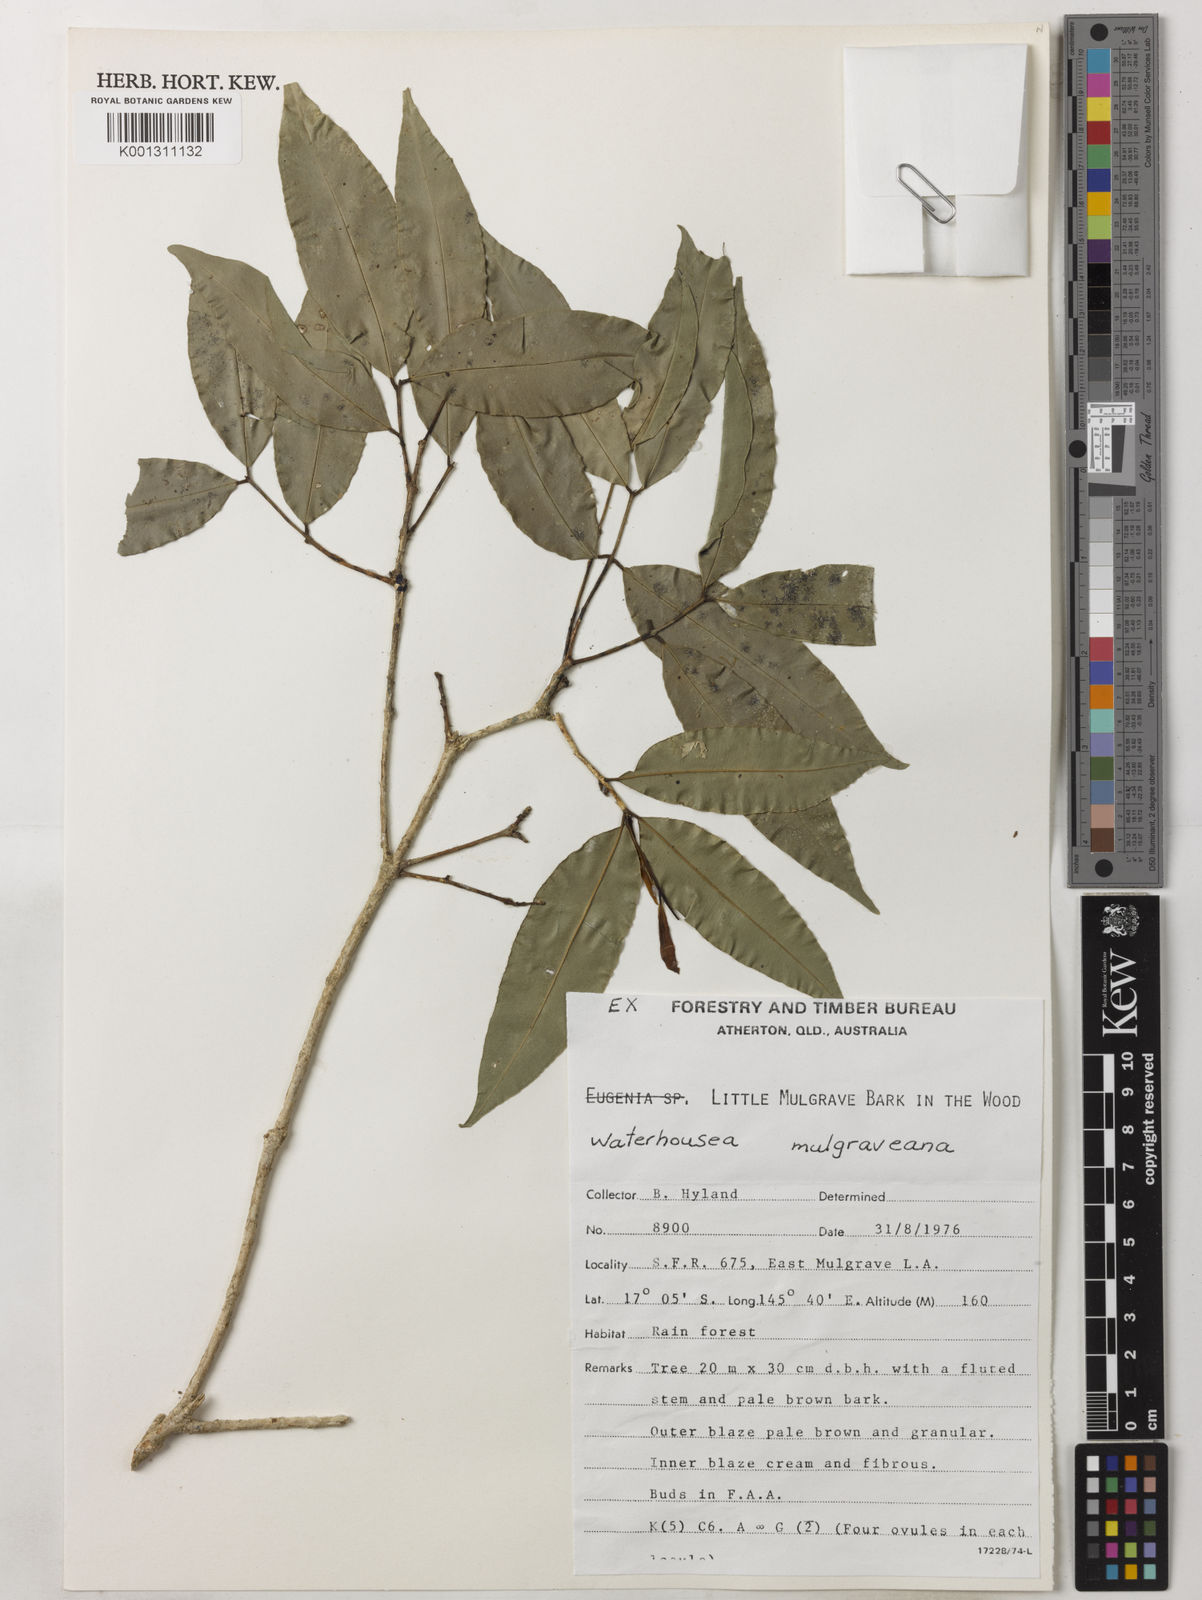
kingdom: Plantae
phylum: Tracheophyta
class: Magnoliopsida
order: Myrtales
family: Myrtaceae
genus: Syzygium
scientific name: Syzygium mulgraveanum
